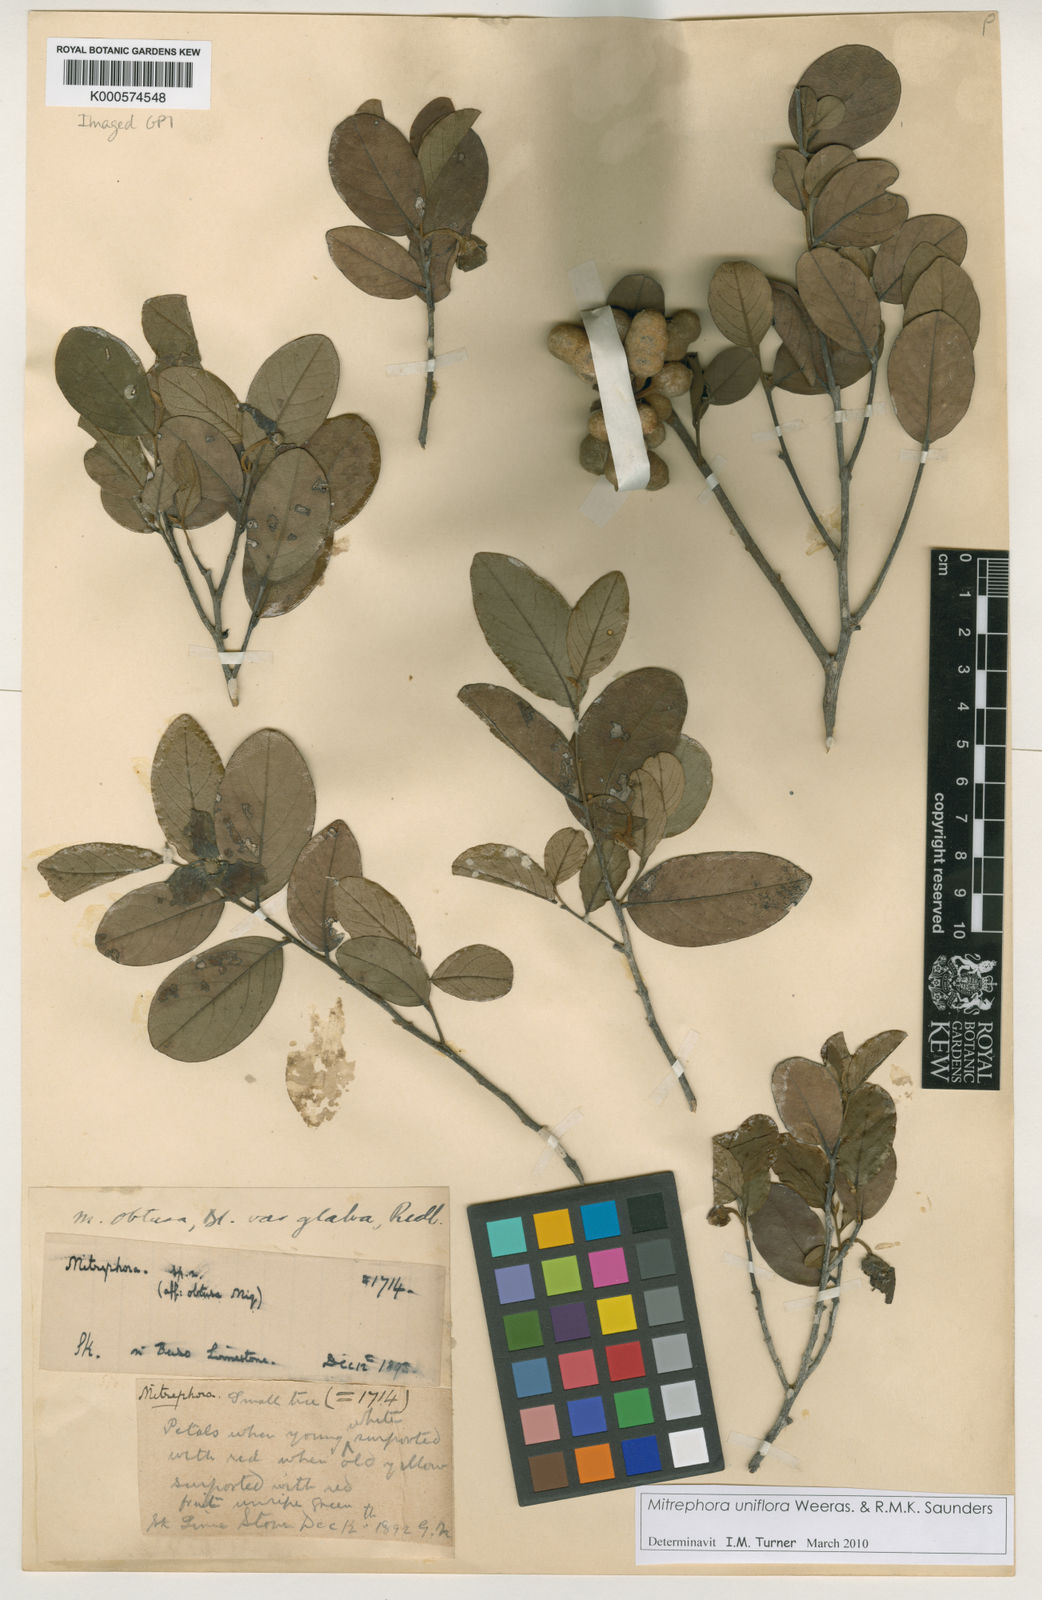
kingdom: Plantae
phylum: Tracheophyta
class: Magnoliopsida
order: Magnoliales
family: Annonaceae
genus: Mitrephora
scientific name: Mitrephora uniflora
